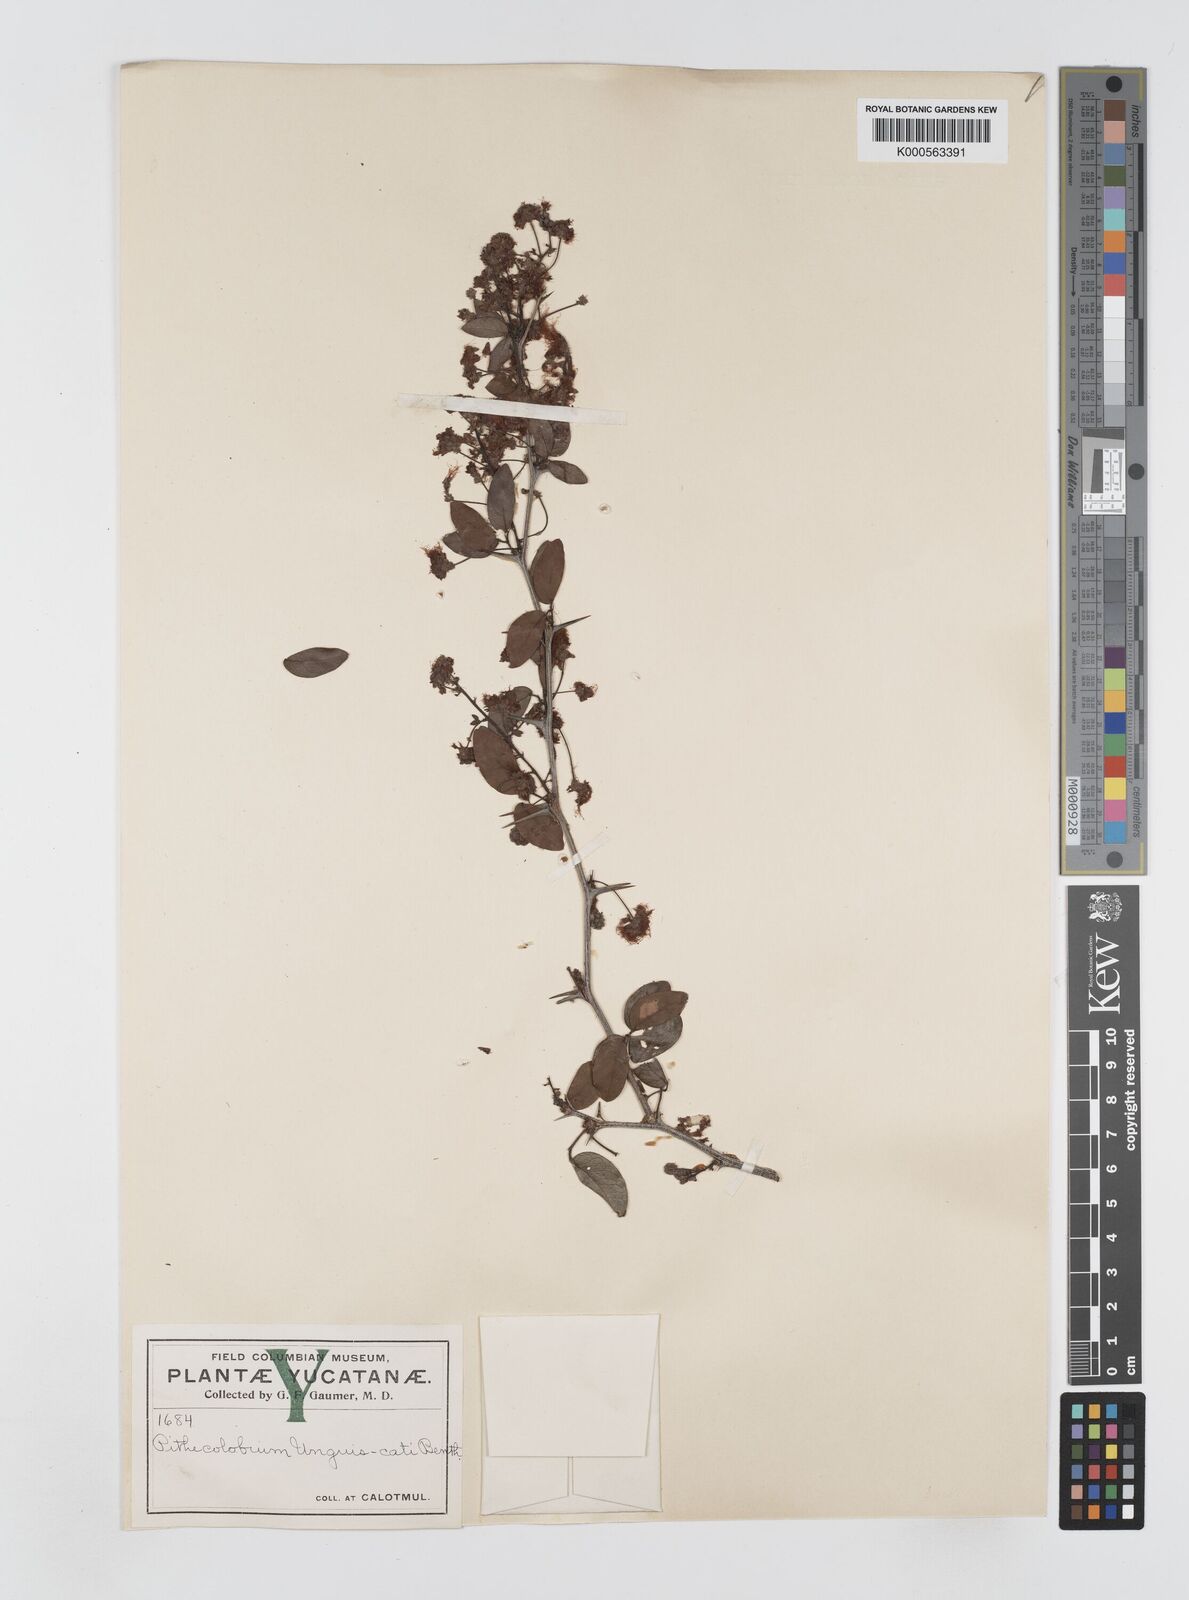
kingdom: Plantae
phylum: Tracheophyta
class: Magnoliopsida
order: Fabales
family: Fabaceae
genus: Pithecellobium
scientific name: Pithecellobium unguis-cati
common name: Cat's-claw
